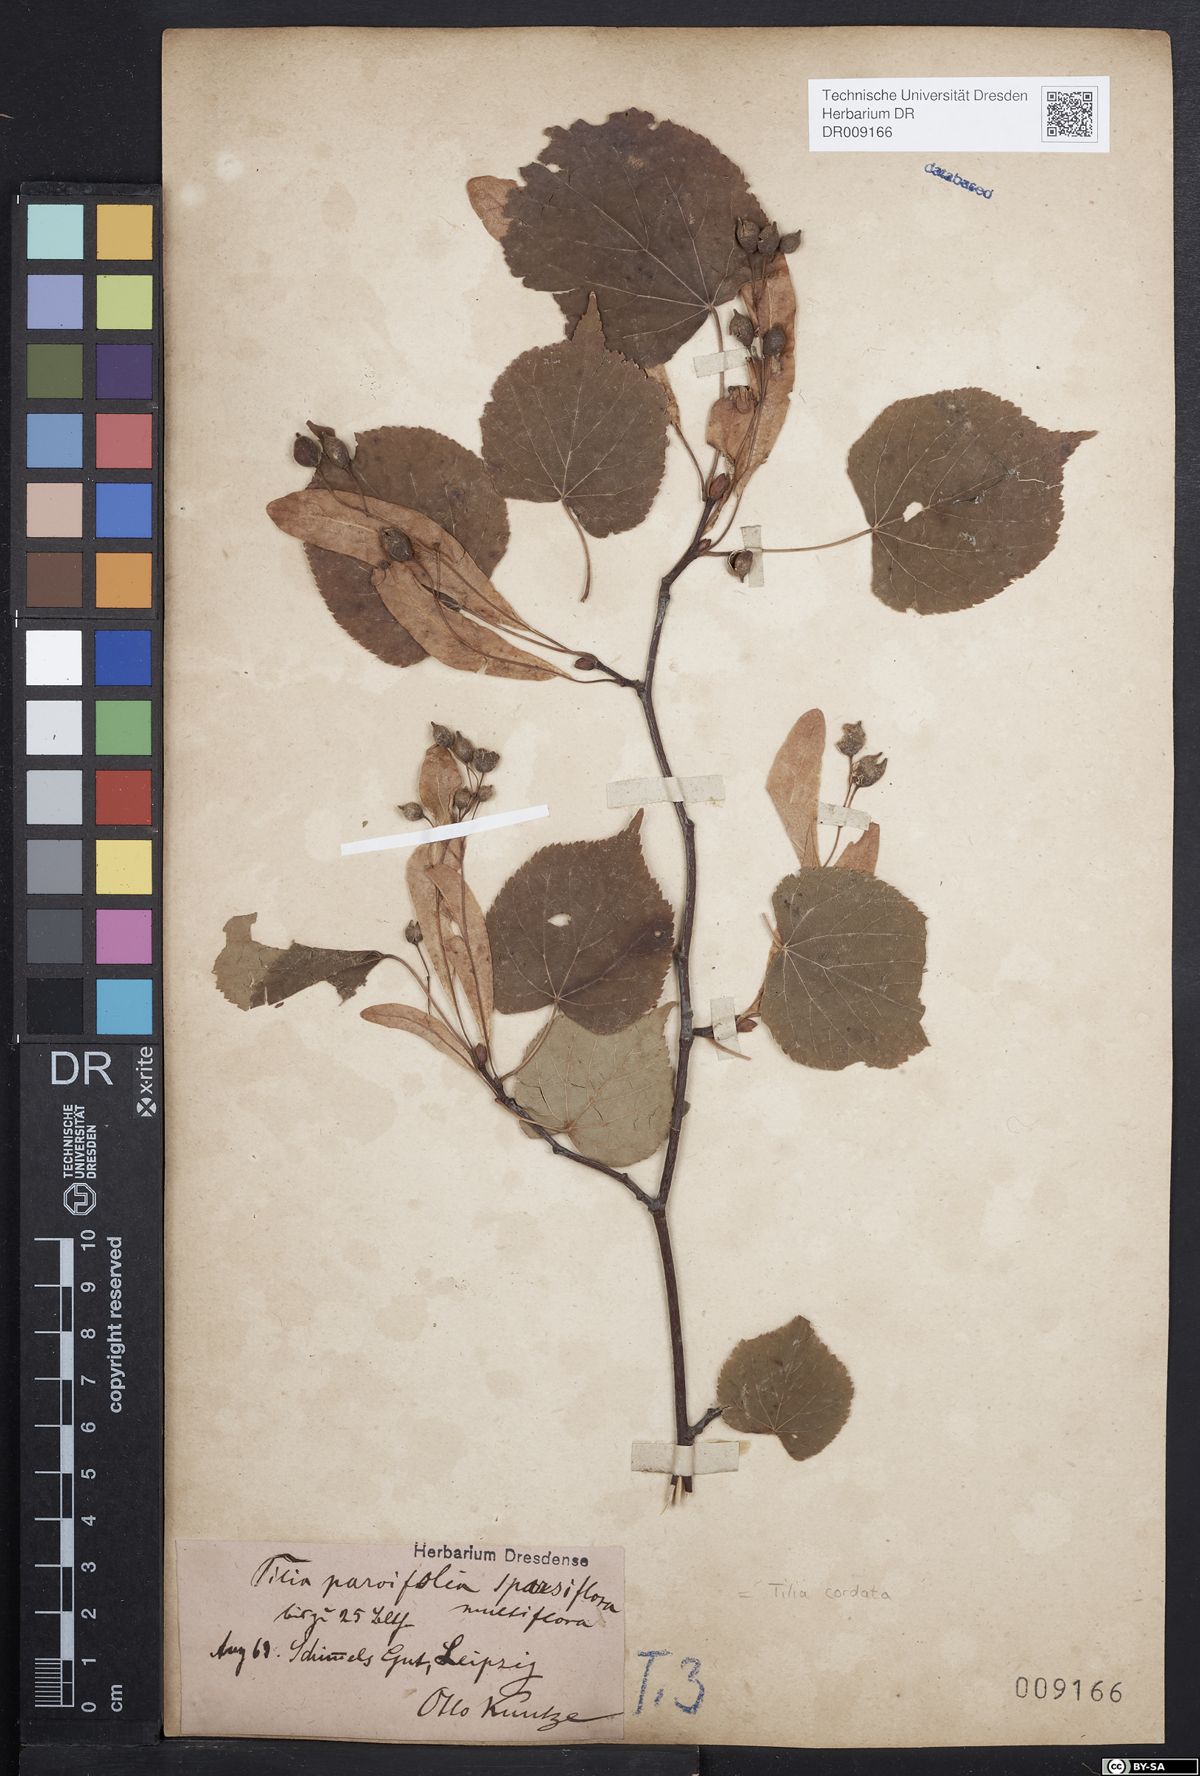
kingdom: Plantae
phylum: Tracheophyta
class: Magnoliopsida
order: Malvales
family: Malvaceae
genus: Tilia
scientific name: Tilia cordata
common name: Small-leaved lime
